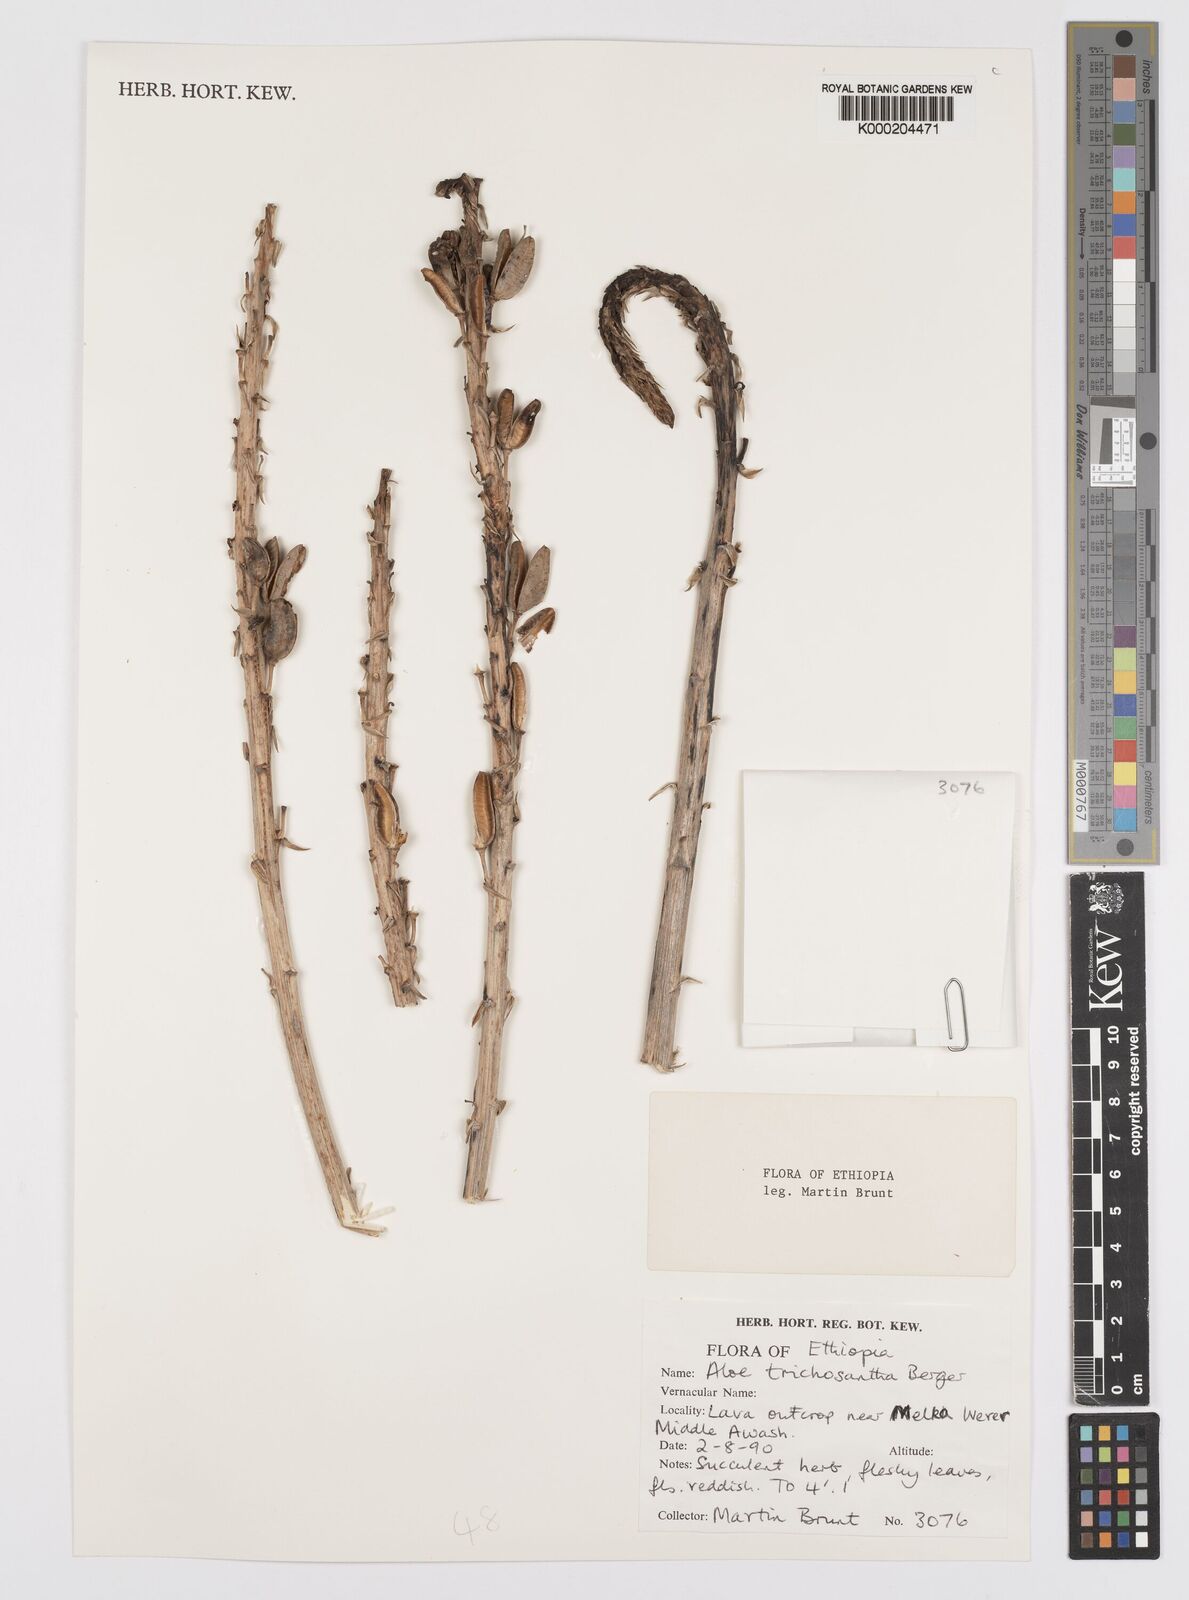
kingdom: Plantae
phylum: Tracheophyta
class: Liliopsida
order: Asparagales
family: Asphodelaceae
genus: Aloe
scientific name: Aloe trichosantha
